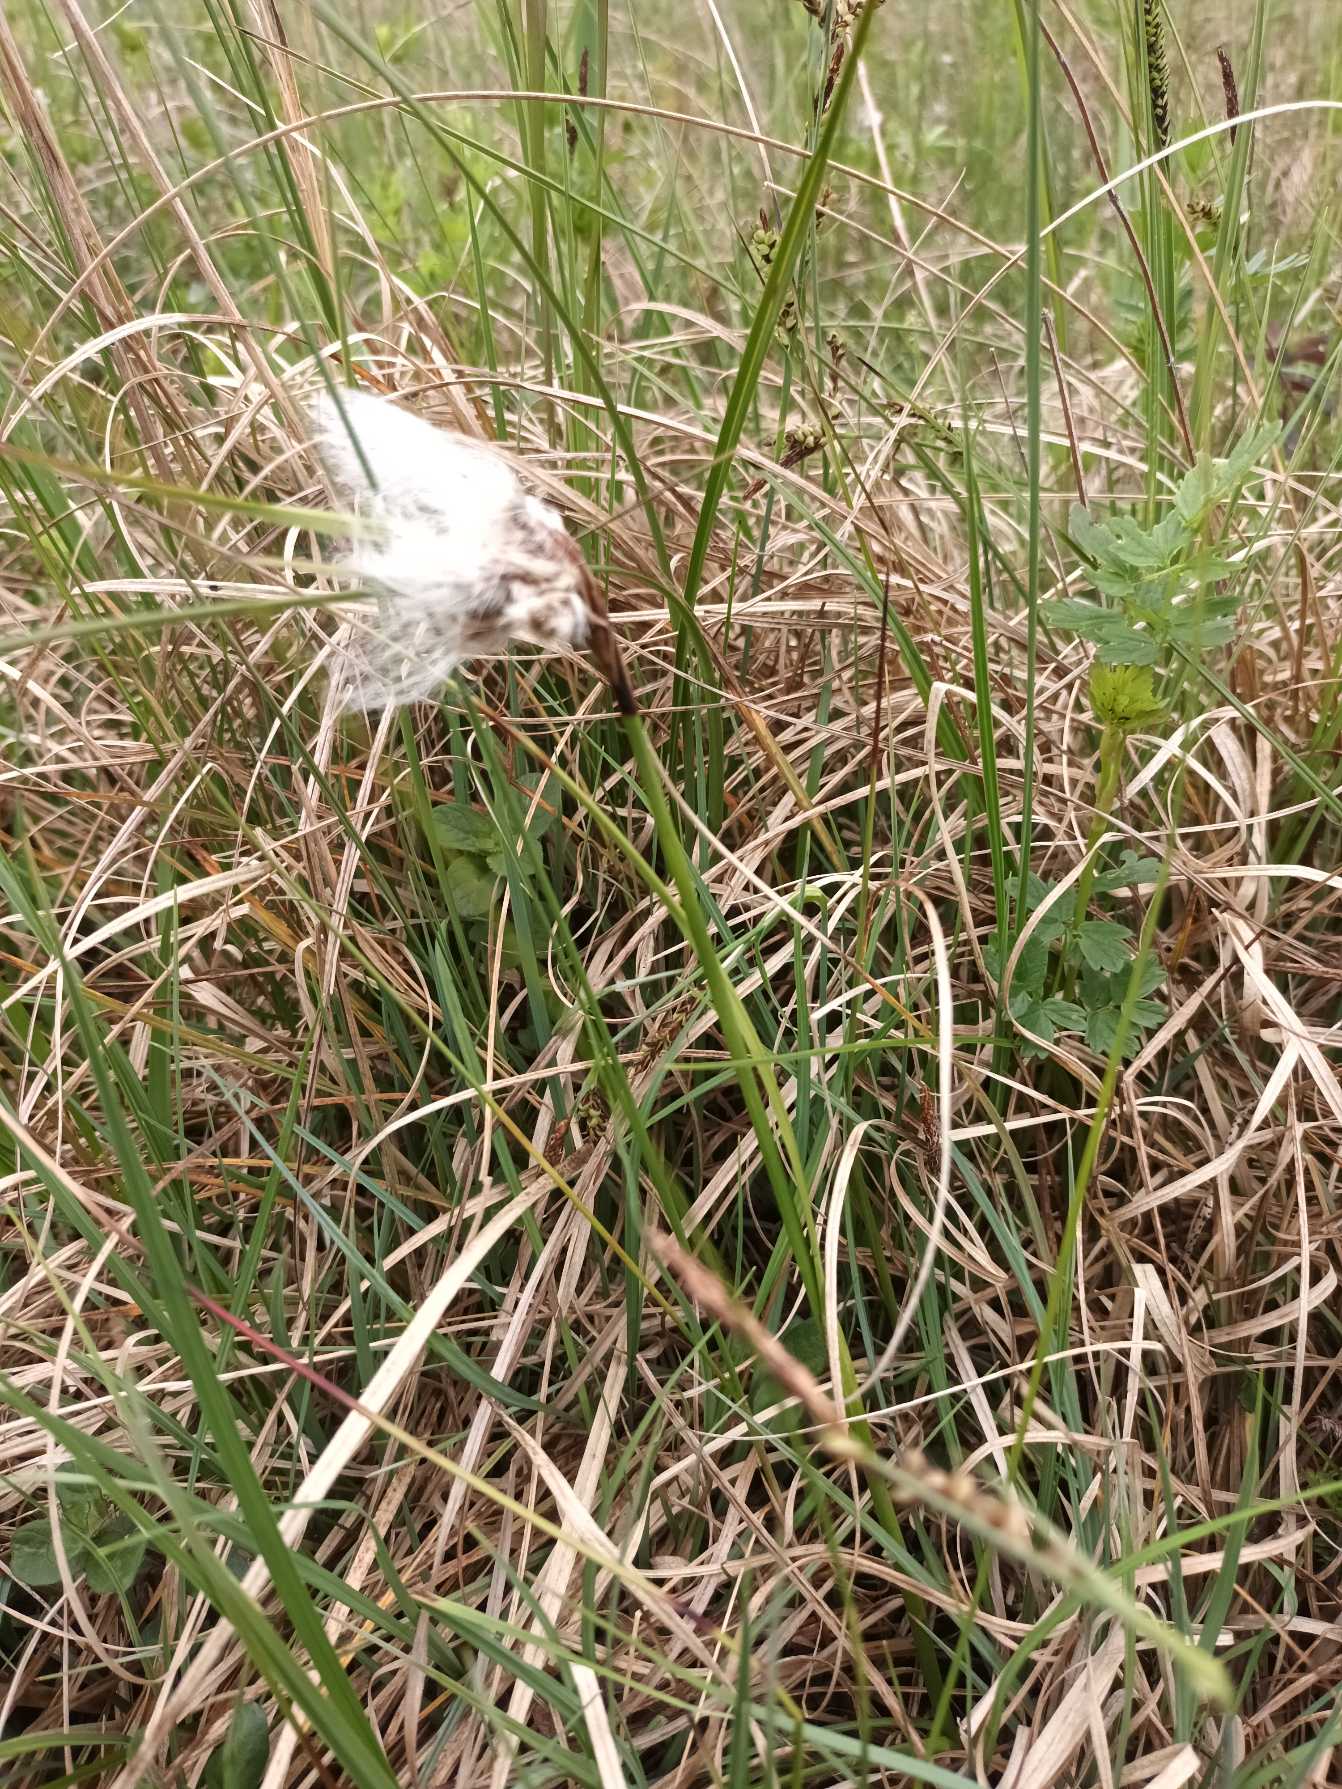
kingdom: Plantae
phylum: Tracheophyta
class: Liliopsida
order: Poales
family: Cyperaceae
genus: Eriophorum
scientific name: Eriophorum angustifolium
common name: Smalbladet kæruld
